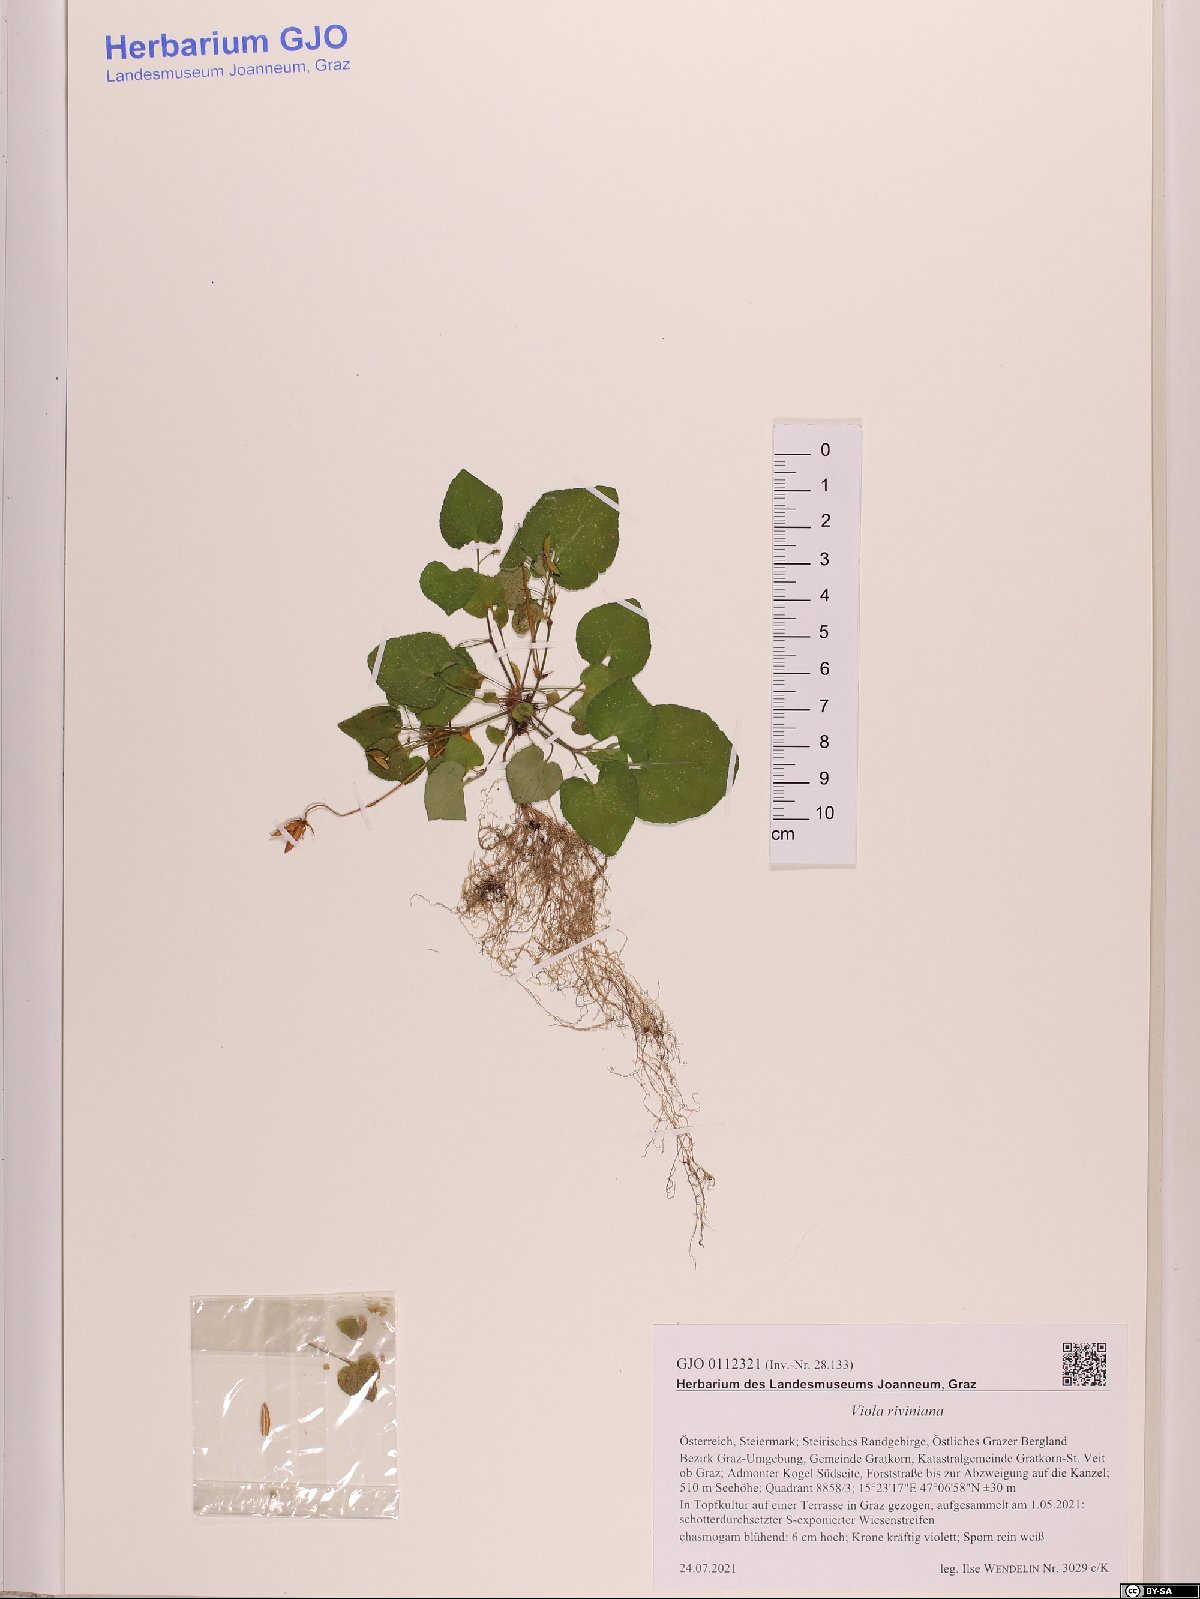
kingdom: Plantae
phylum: Tracheophyta
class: Magnoliopsida
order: Malpighiales
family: Violaceae
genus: Viola
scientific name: Viola riviniana
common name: Common dog-violet
